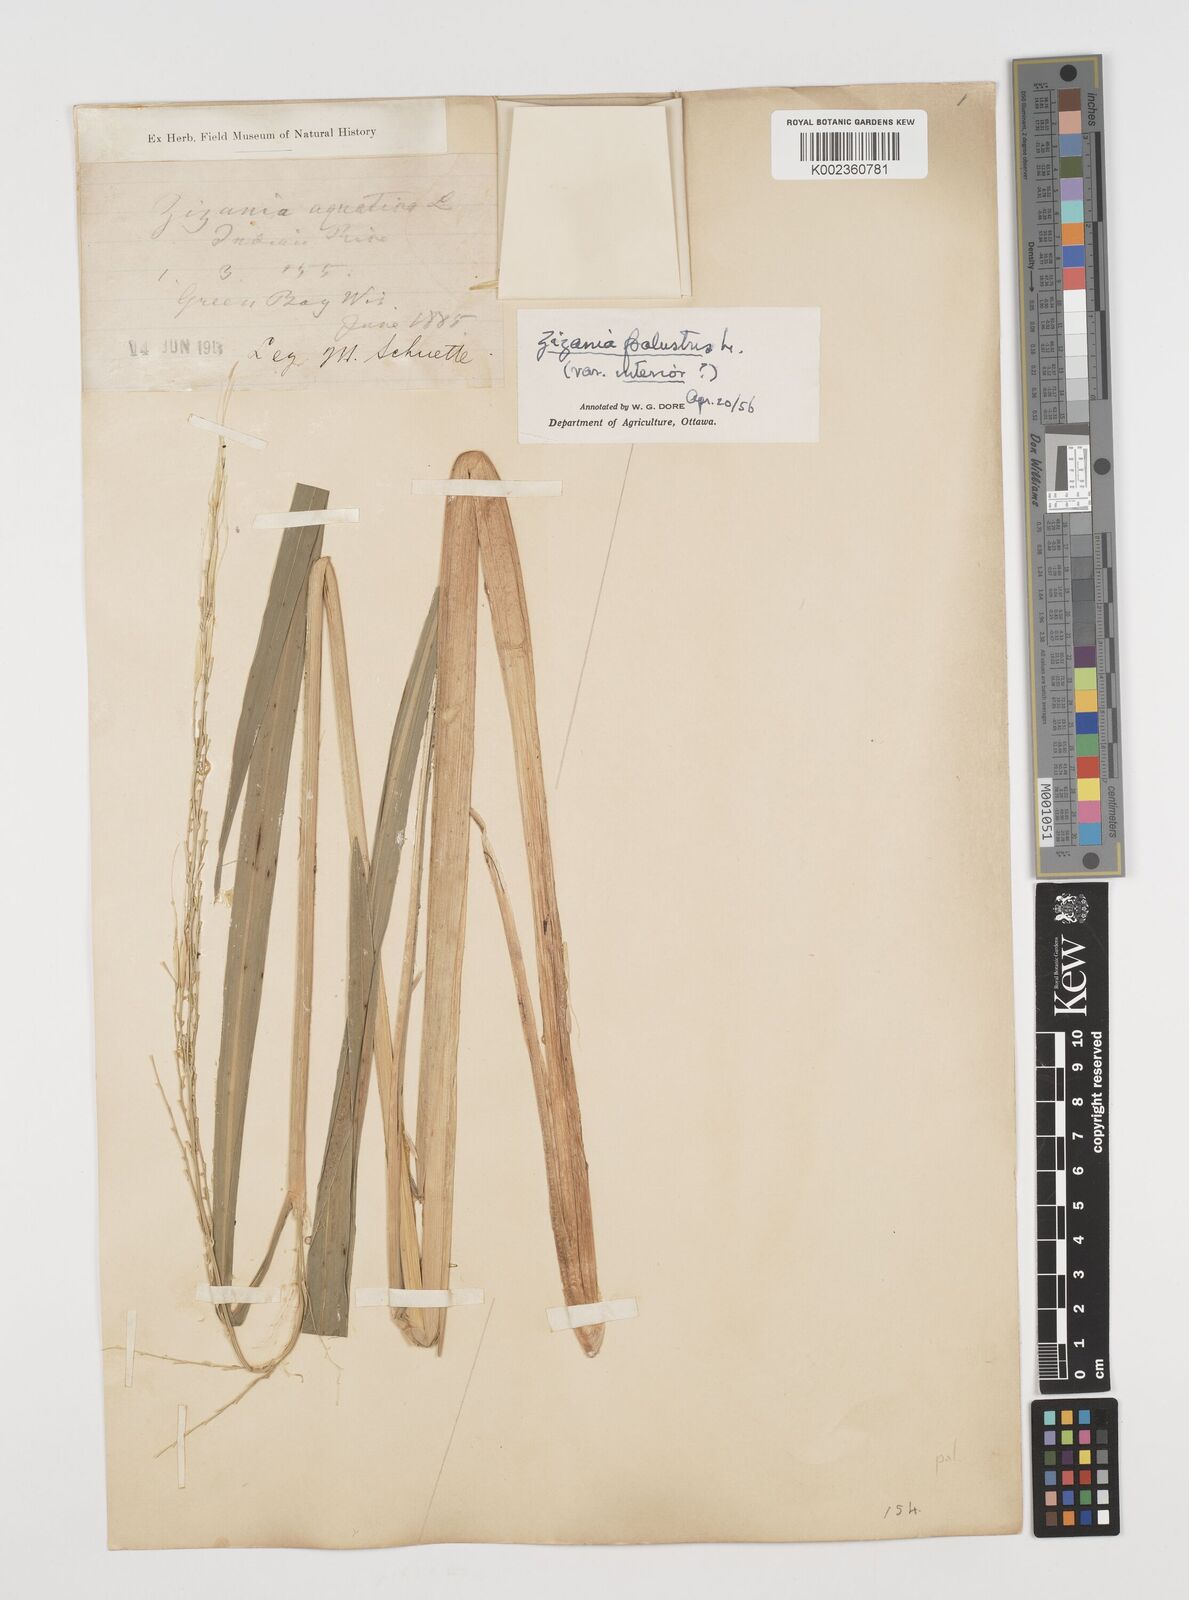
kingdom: Plantae
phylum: Tracheophyta
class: Liliopsida
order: Poales
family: Poaceae
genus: Zizania
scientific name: Zizania palustris
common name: Northern wild rice
